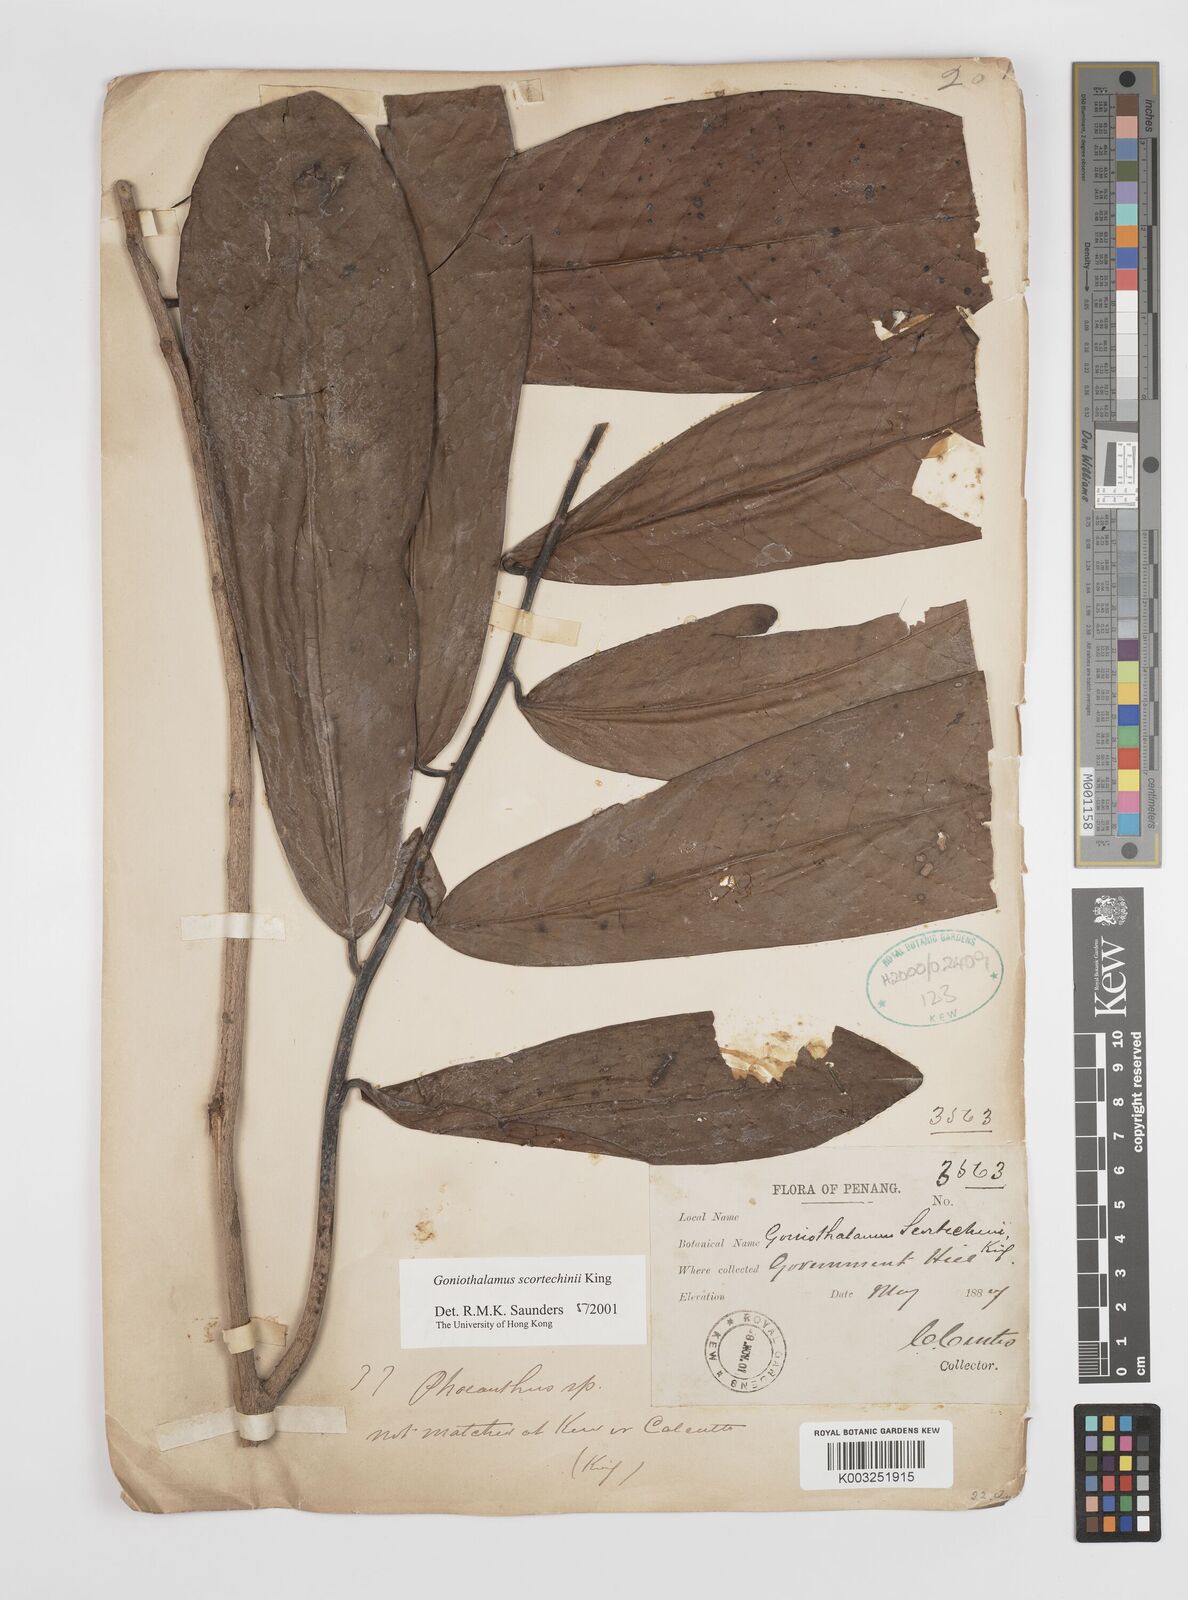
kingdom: Plantae
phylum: Tracheophyta
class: Magnoliopsida
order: Magnoliales
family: Annonaceae
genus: Goniothalamus
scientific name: Goniothalamus scortechinii
